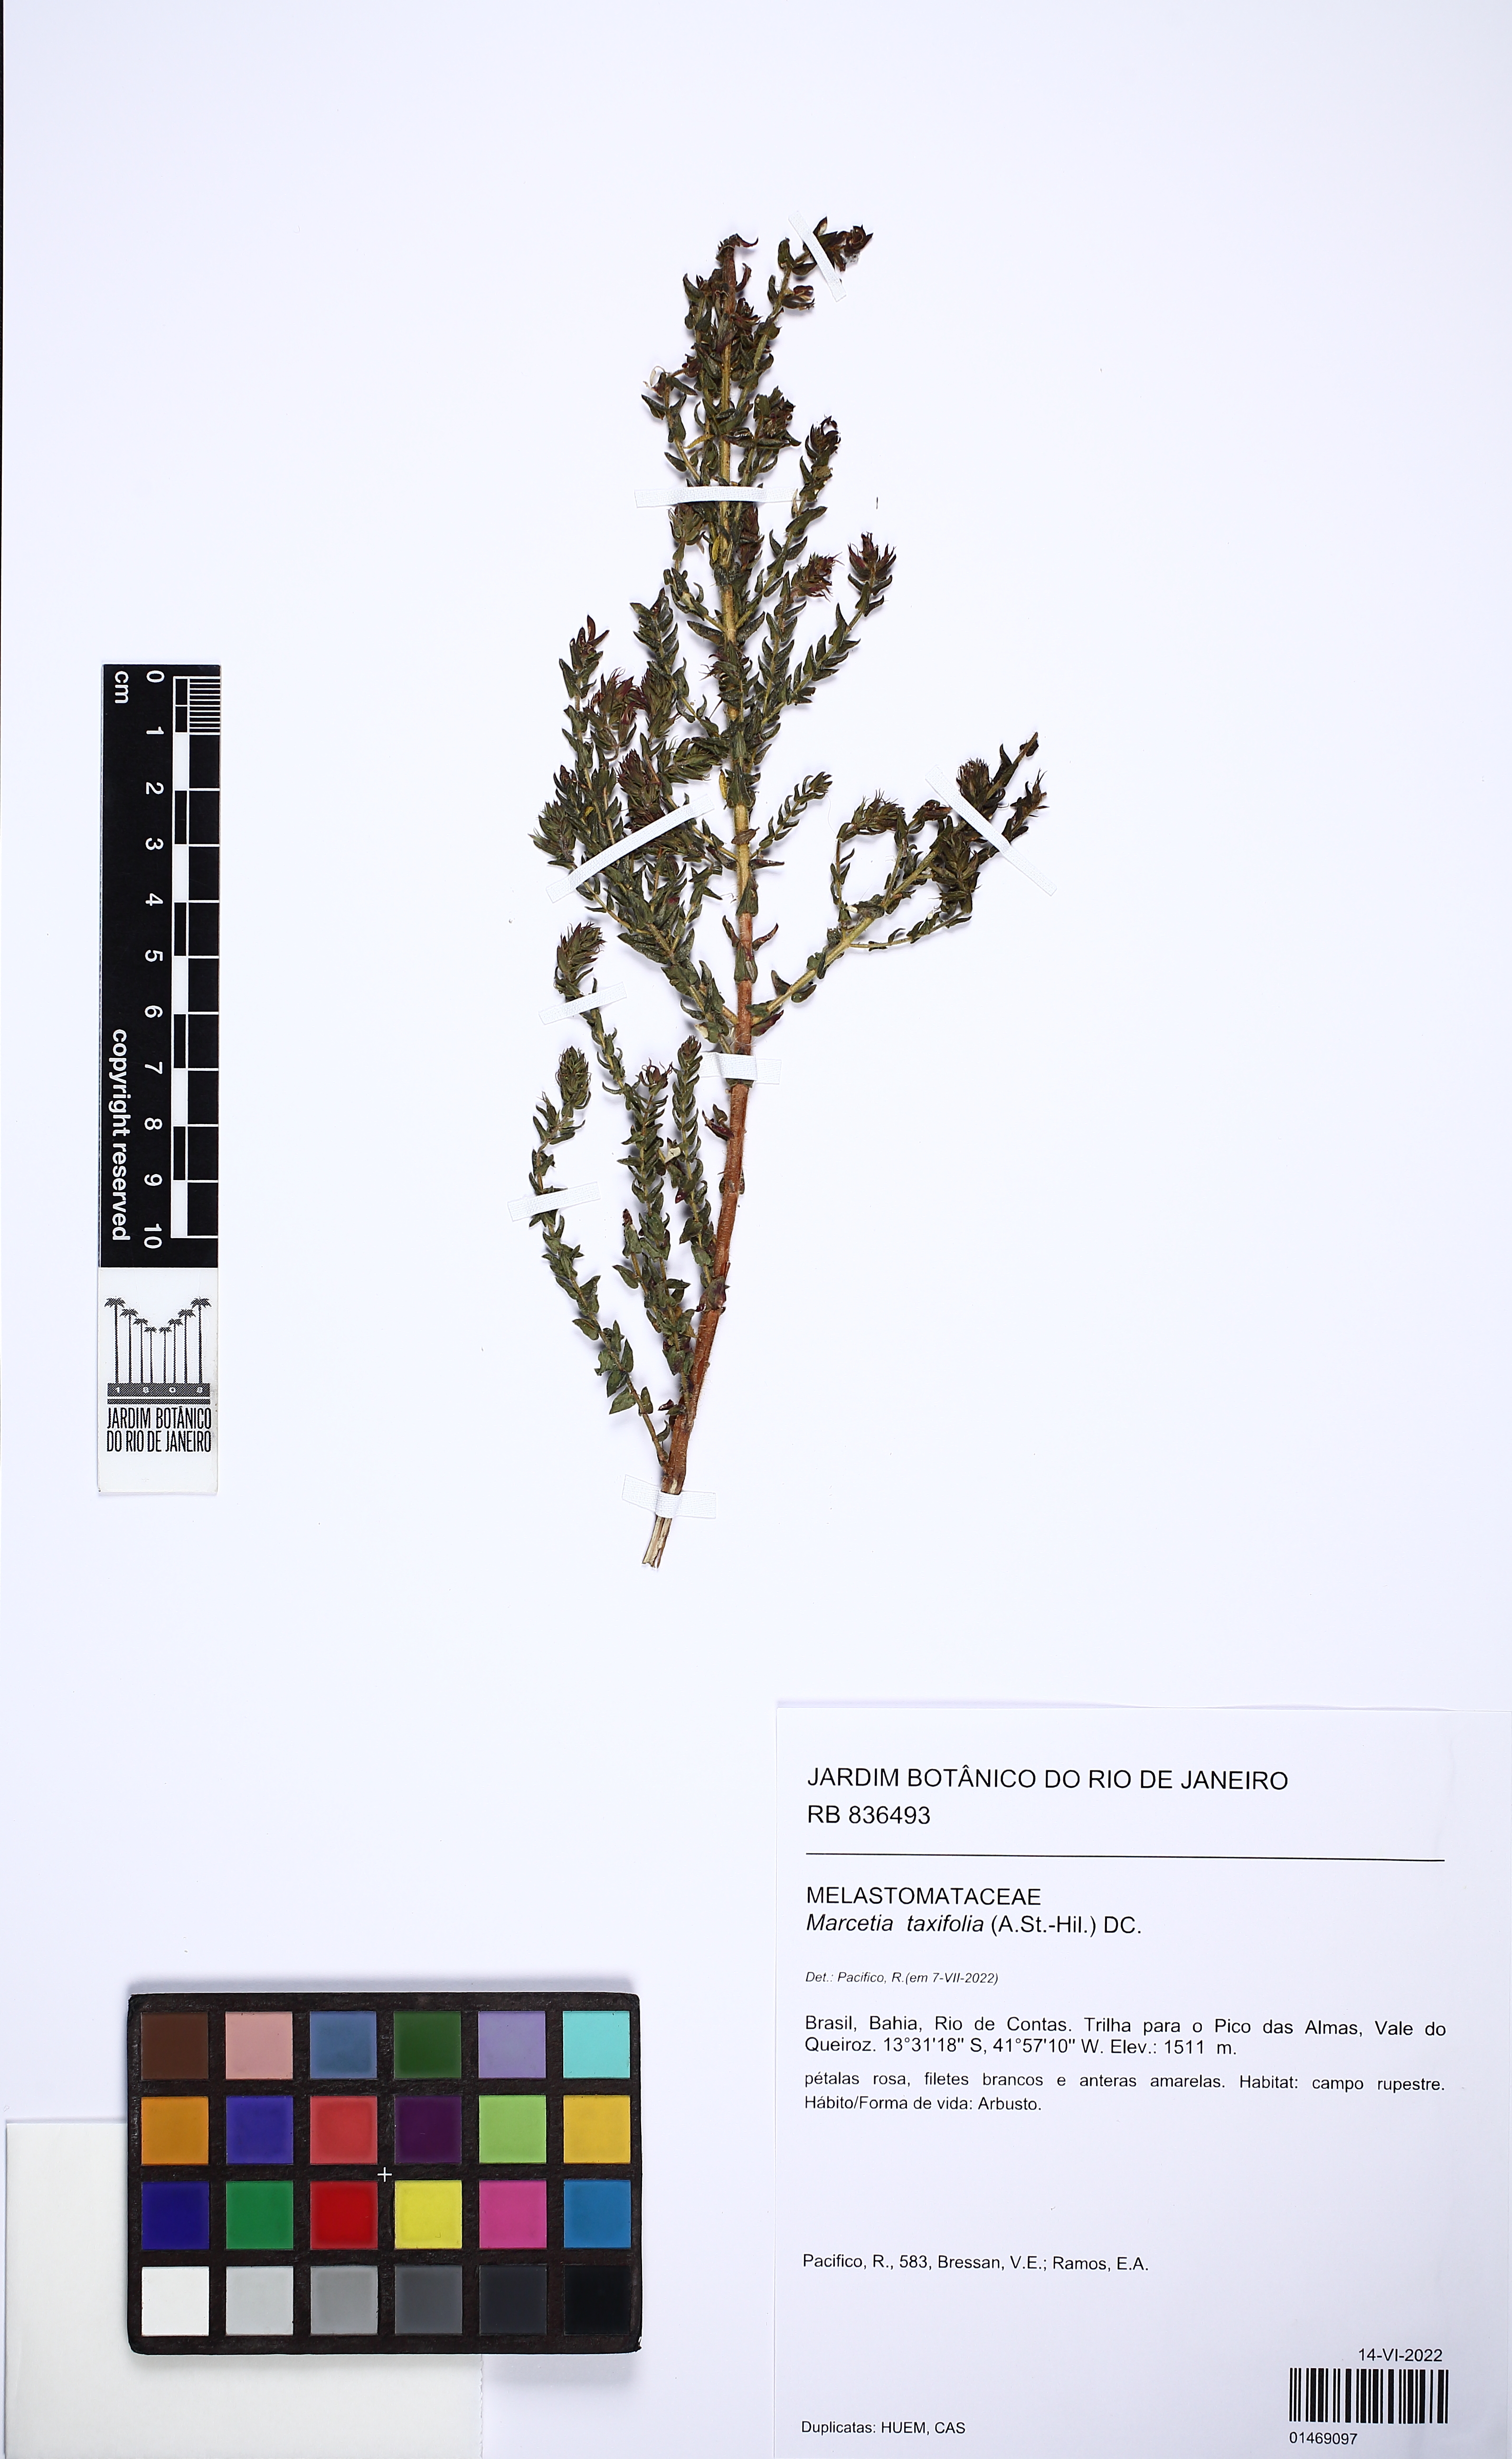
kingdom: Plantae
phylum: Tracheophyta
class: Magnoliopsida
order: Myrtales
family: Melastomataceae
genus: Marcetia
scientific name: Marcetia taxifolia
